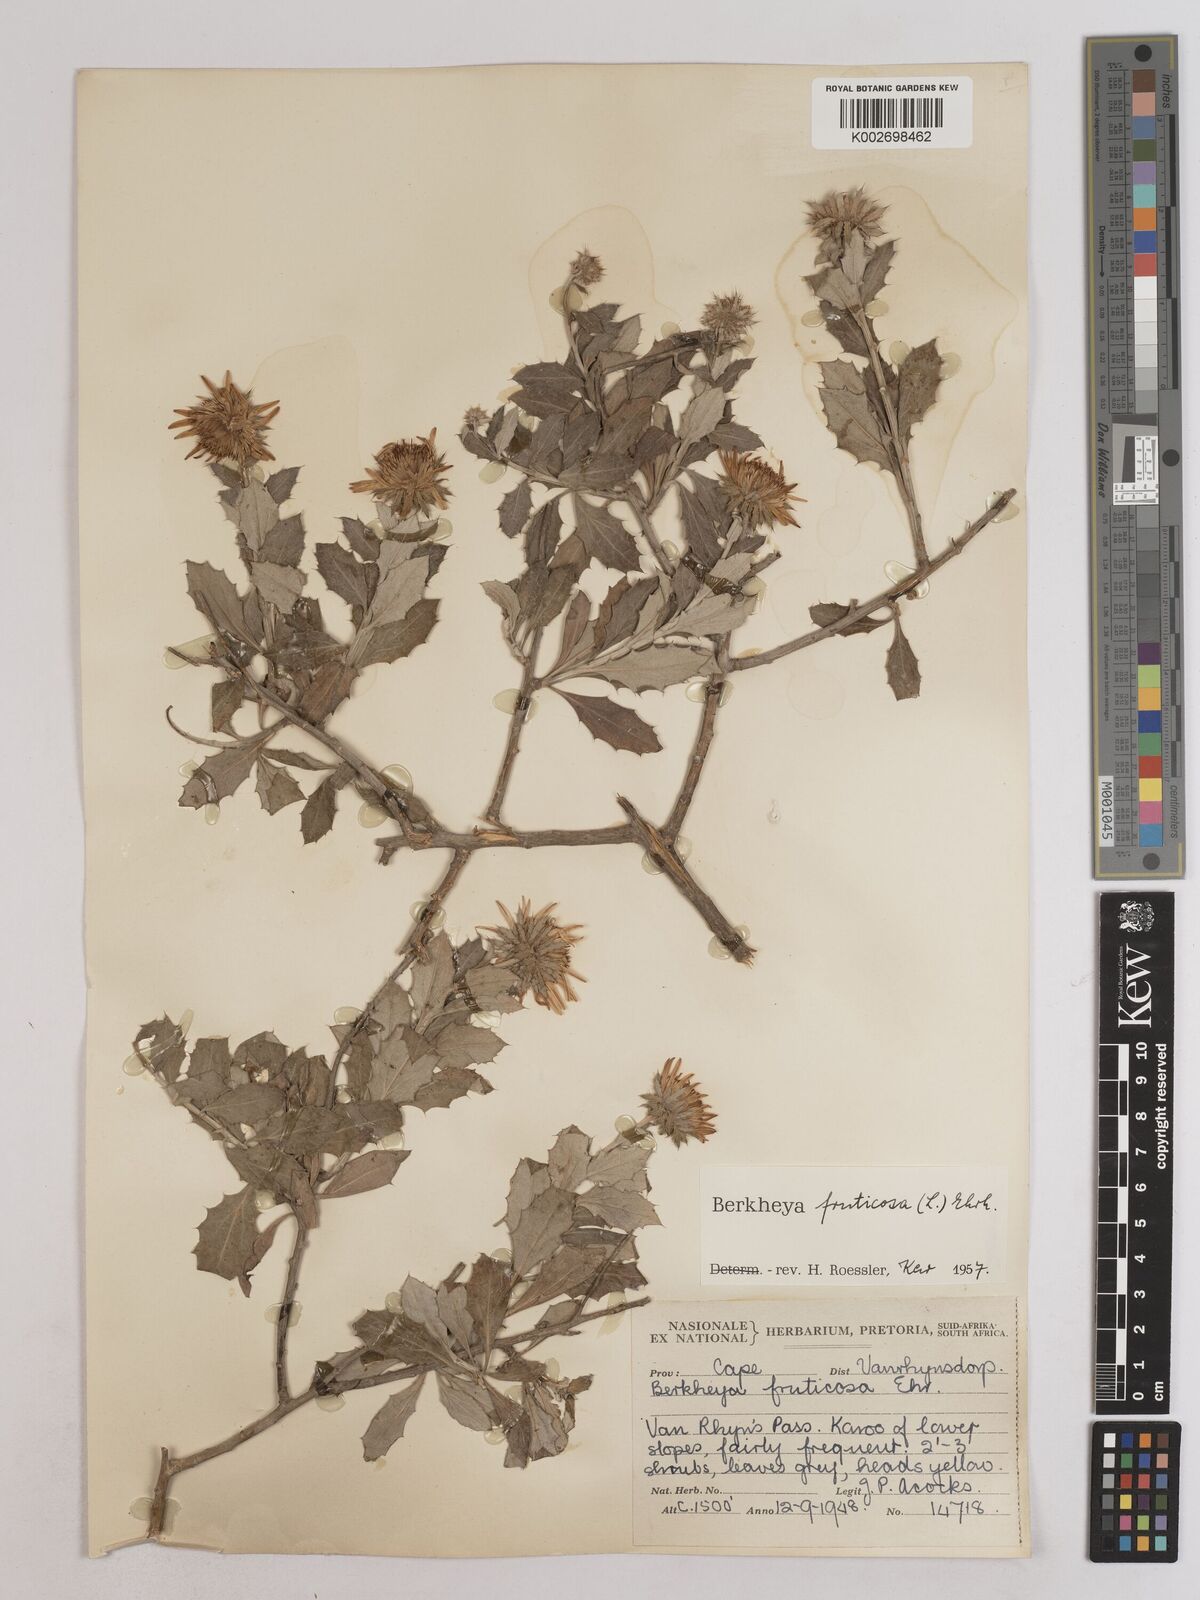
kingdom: Plantae
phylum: Tracheophyta
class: Magnoliopsida
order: Asterales
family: Asteraceae
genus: Berkheya
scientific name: Berkheya fruticosa
